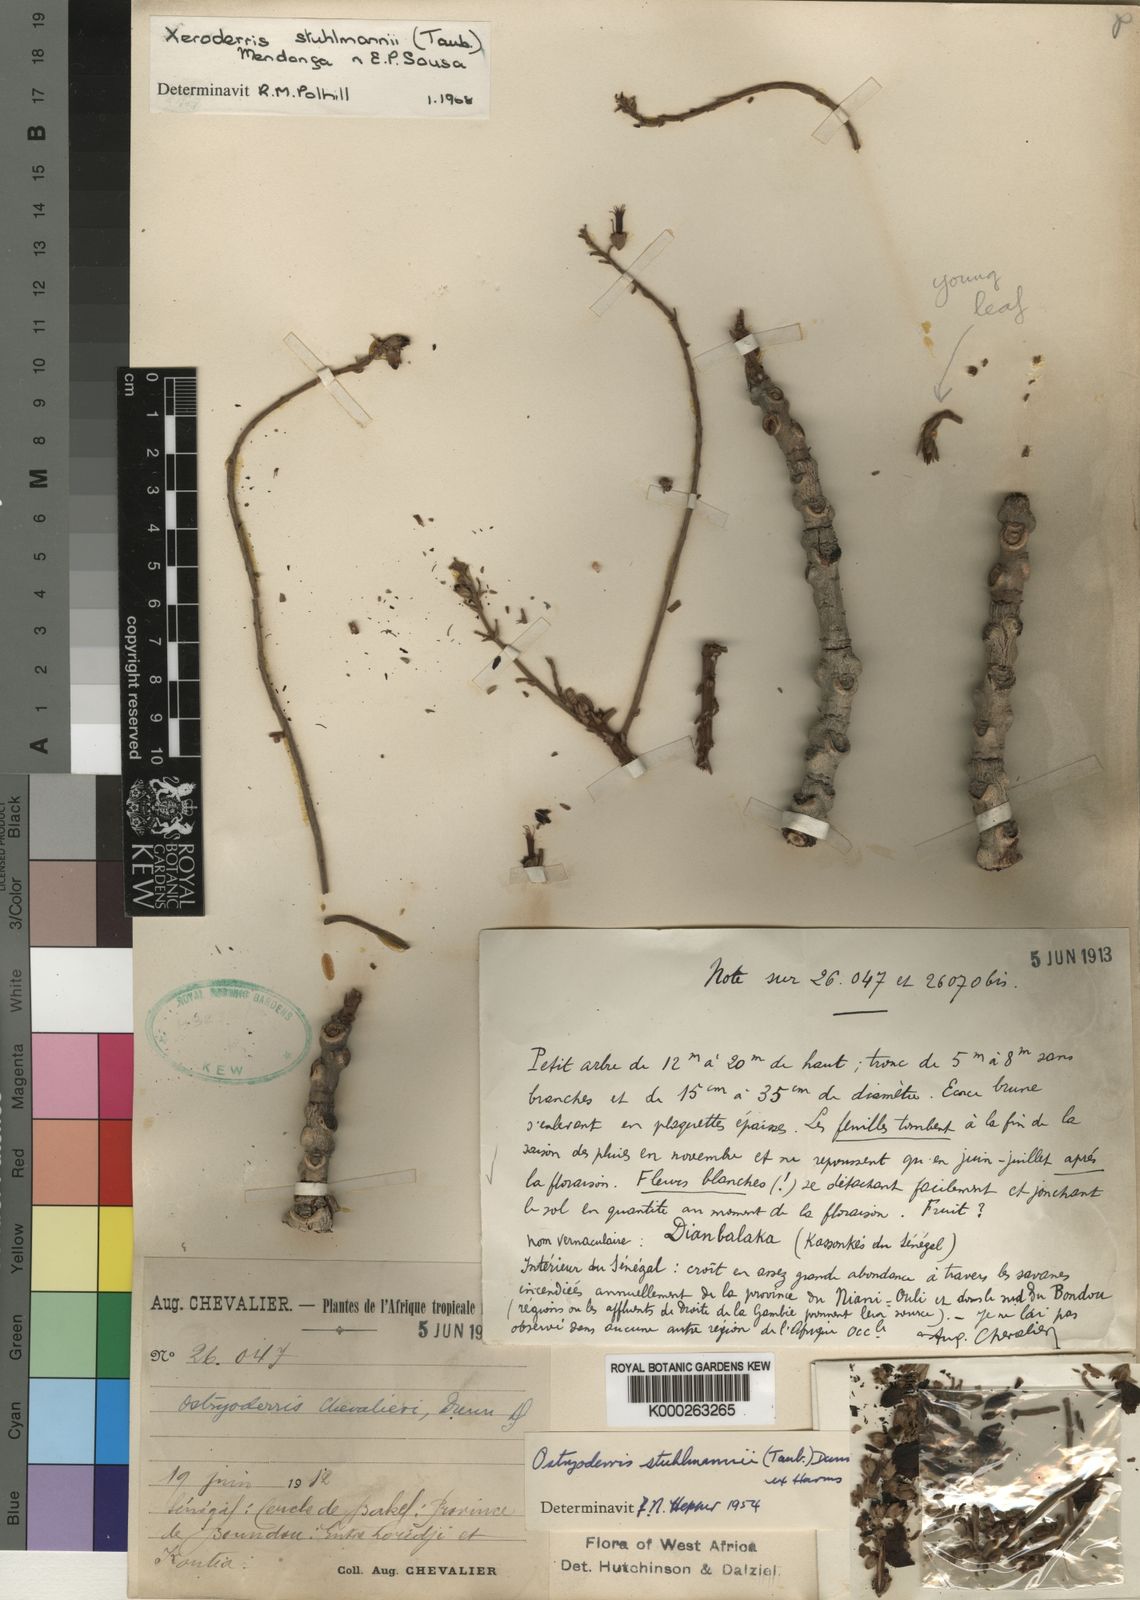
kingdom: Plantae
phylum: Tracheophyta
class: Magnoliopsida
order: Fabales
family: Fabaceae
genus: Aganope
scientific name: Aganope stuhlmannii
